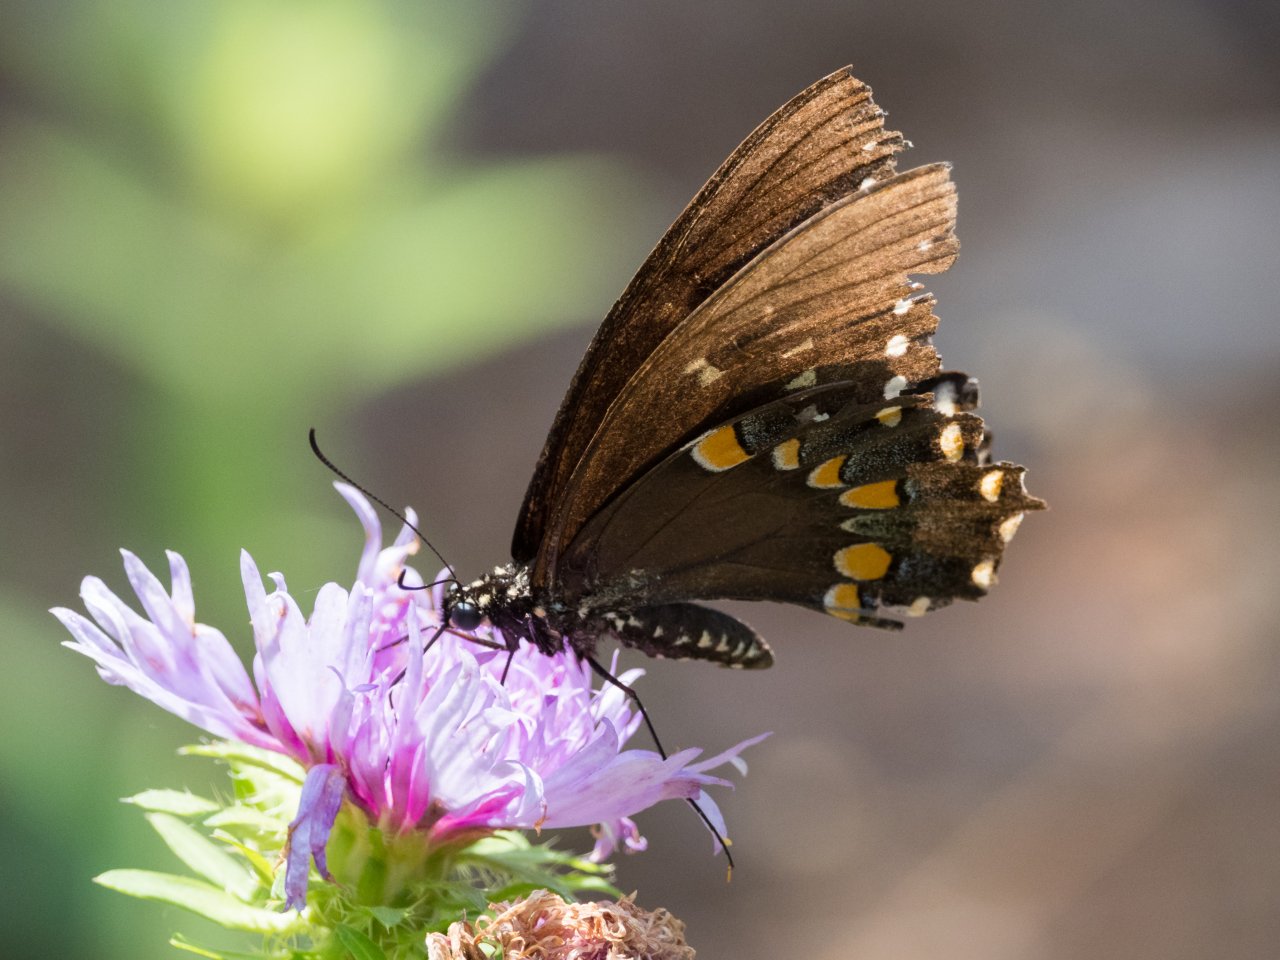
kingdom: Animalia
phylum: Arthropoda
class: Insecta
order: Lepidoptera
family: Papilionidae
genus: Pterourus
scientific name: Pterourus troilus
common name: Spicebush Swallowtail
